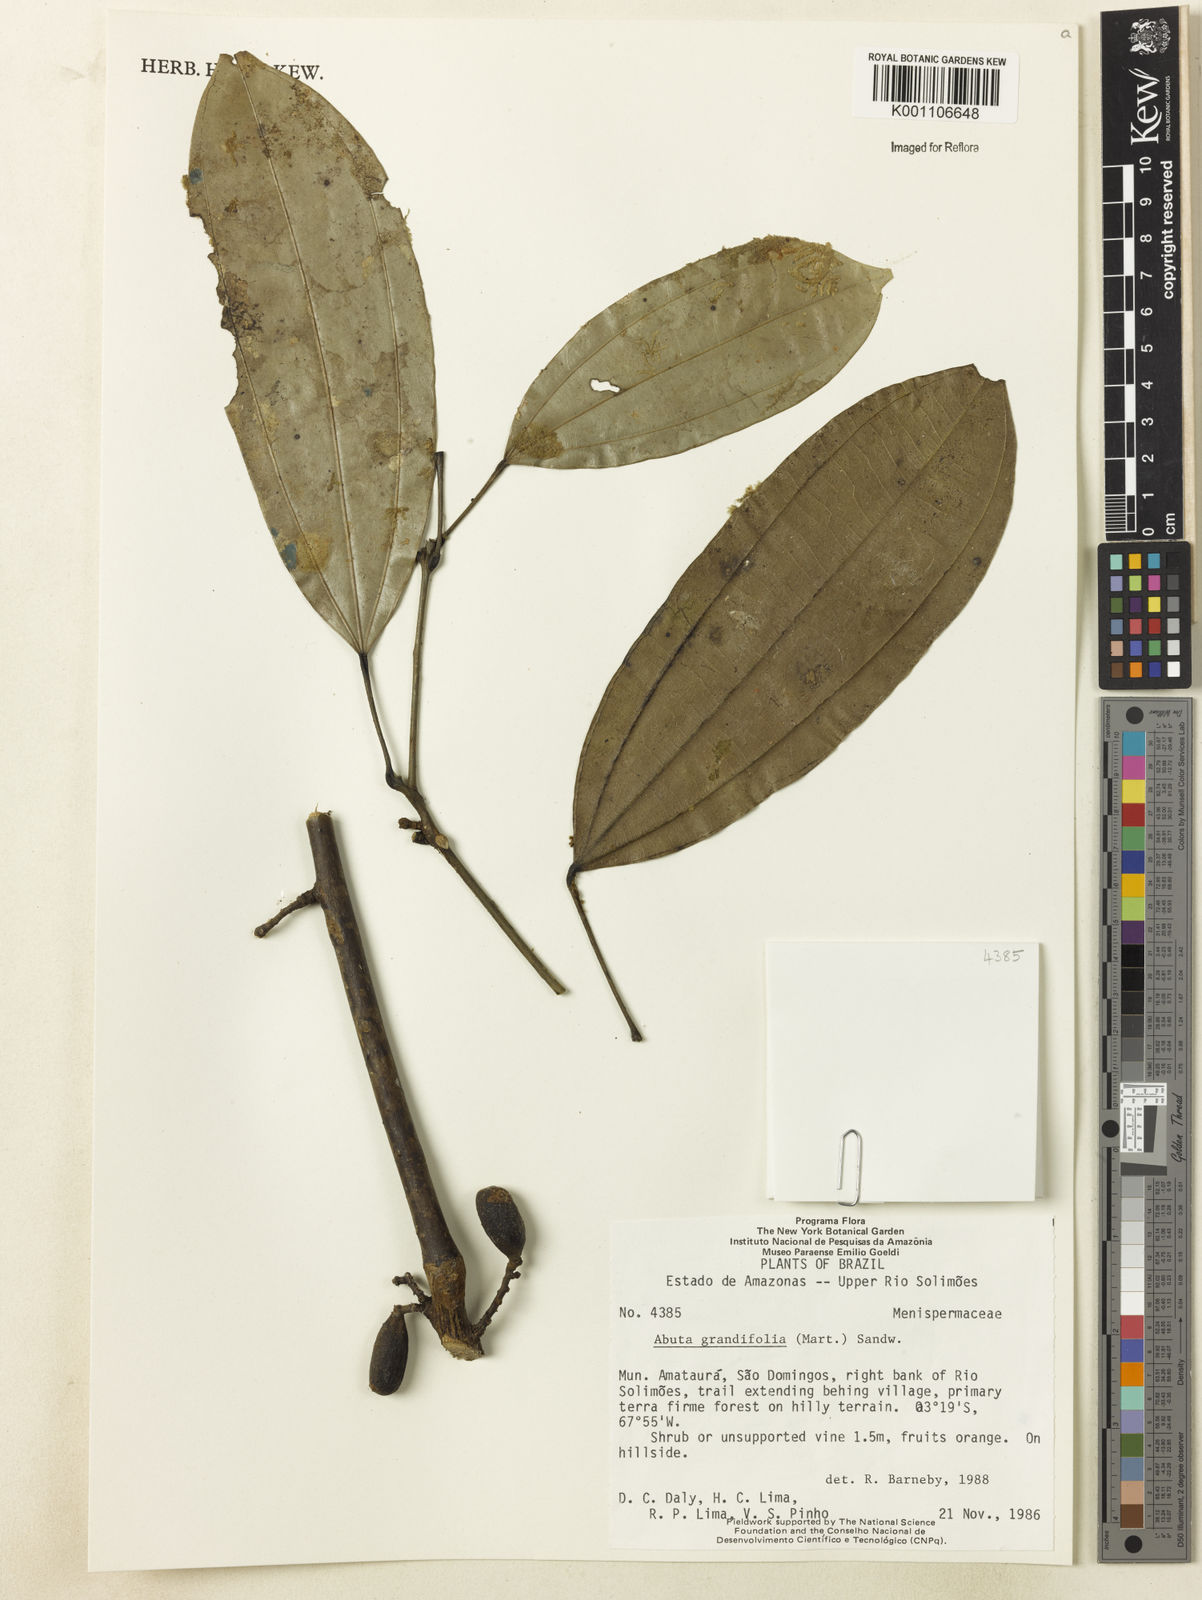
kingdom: Plantae
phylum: Tracheophyta
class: Magnoliopsida
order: Ranunculales
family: Menispermaceae
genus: Abuta
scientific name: Abuta grandifolia
